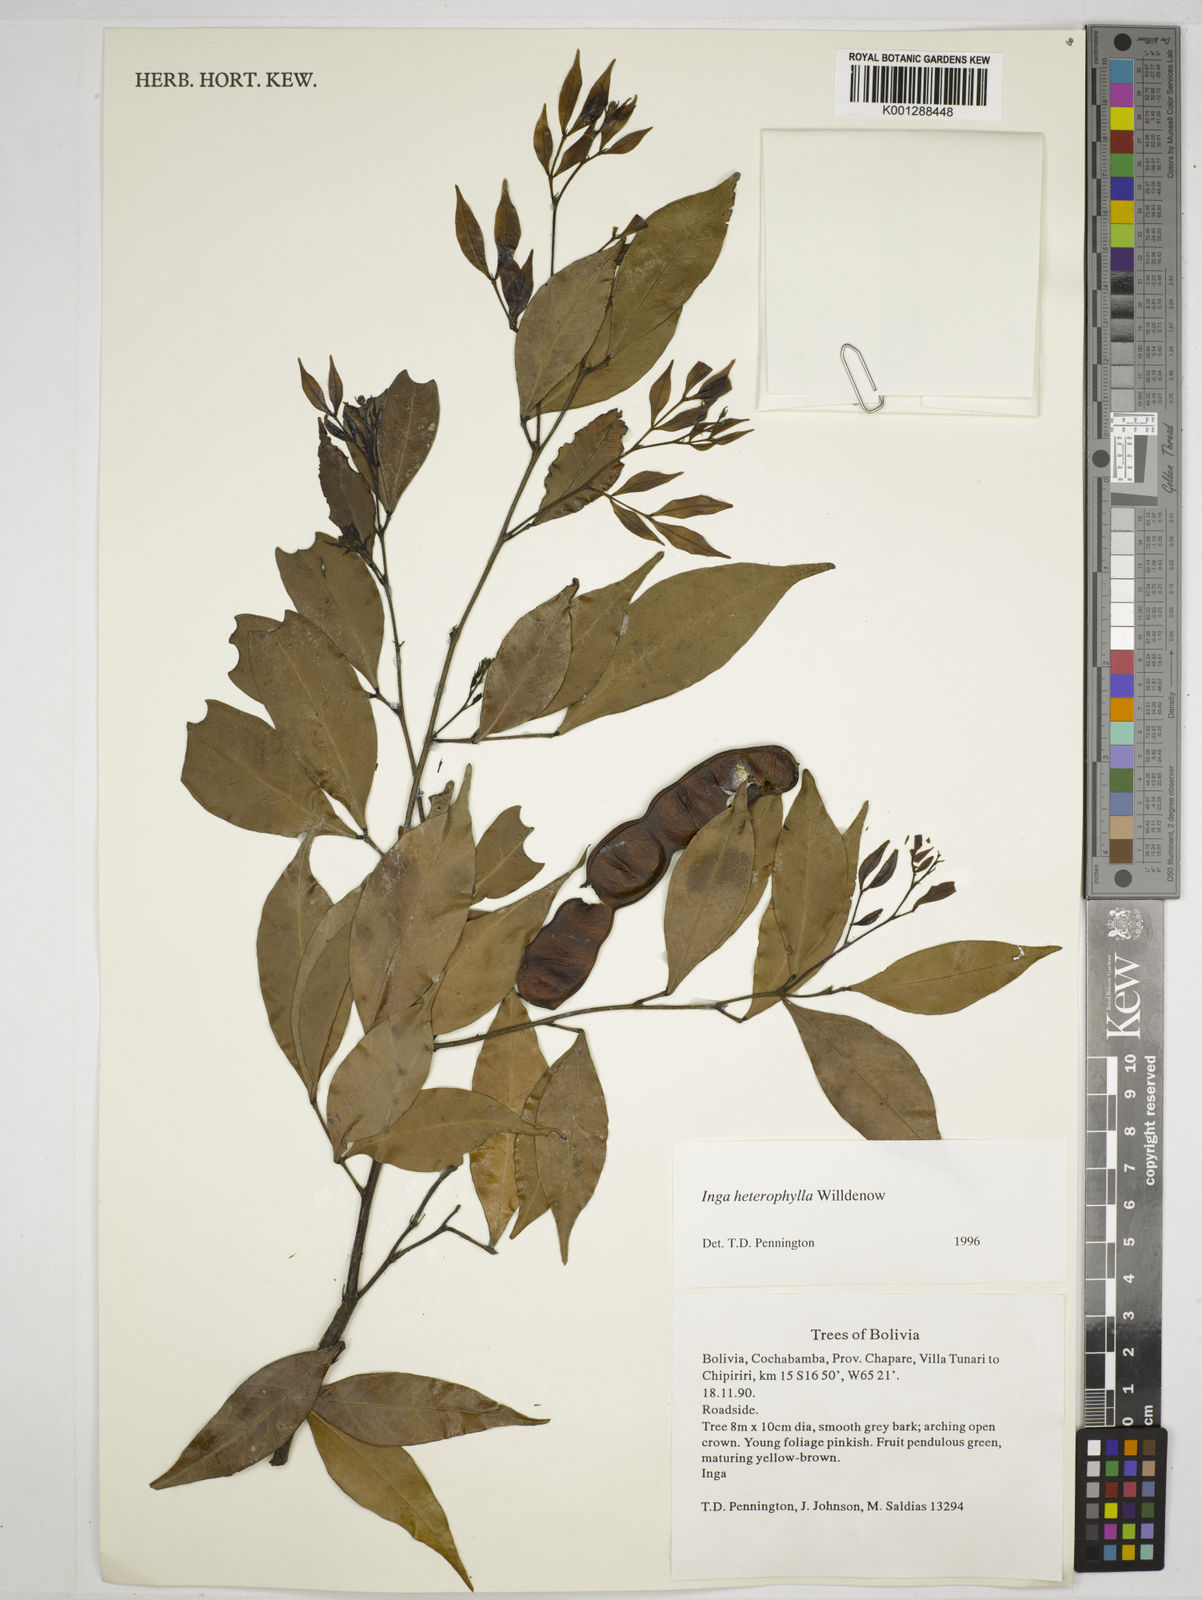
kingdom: Plantae
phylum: Tracheophyta
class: Magnoliopsida
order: Fabales
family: Fabaceae
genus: Inga
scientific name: Inga heterophylla
